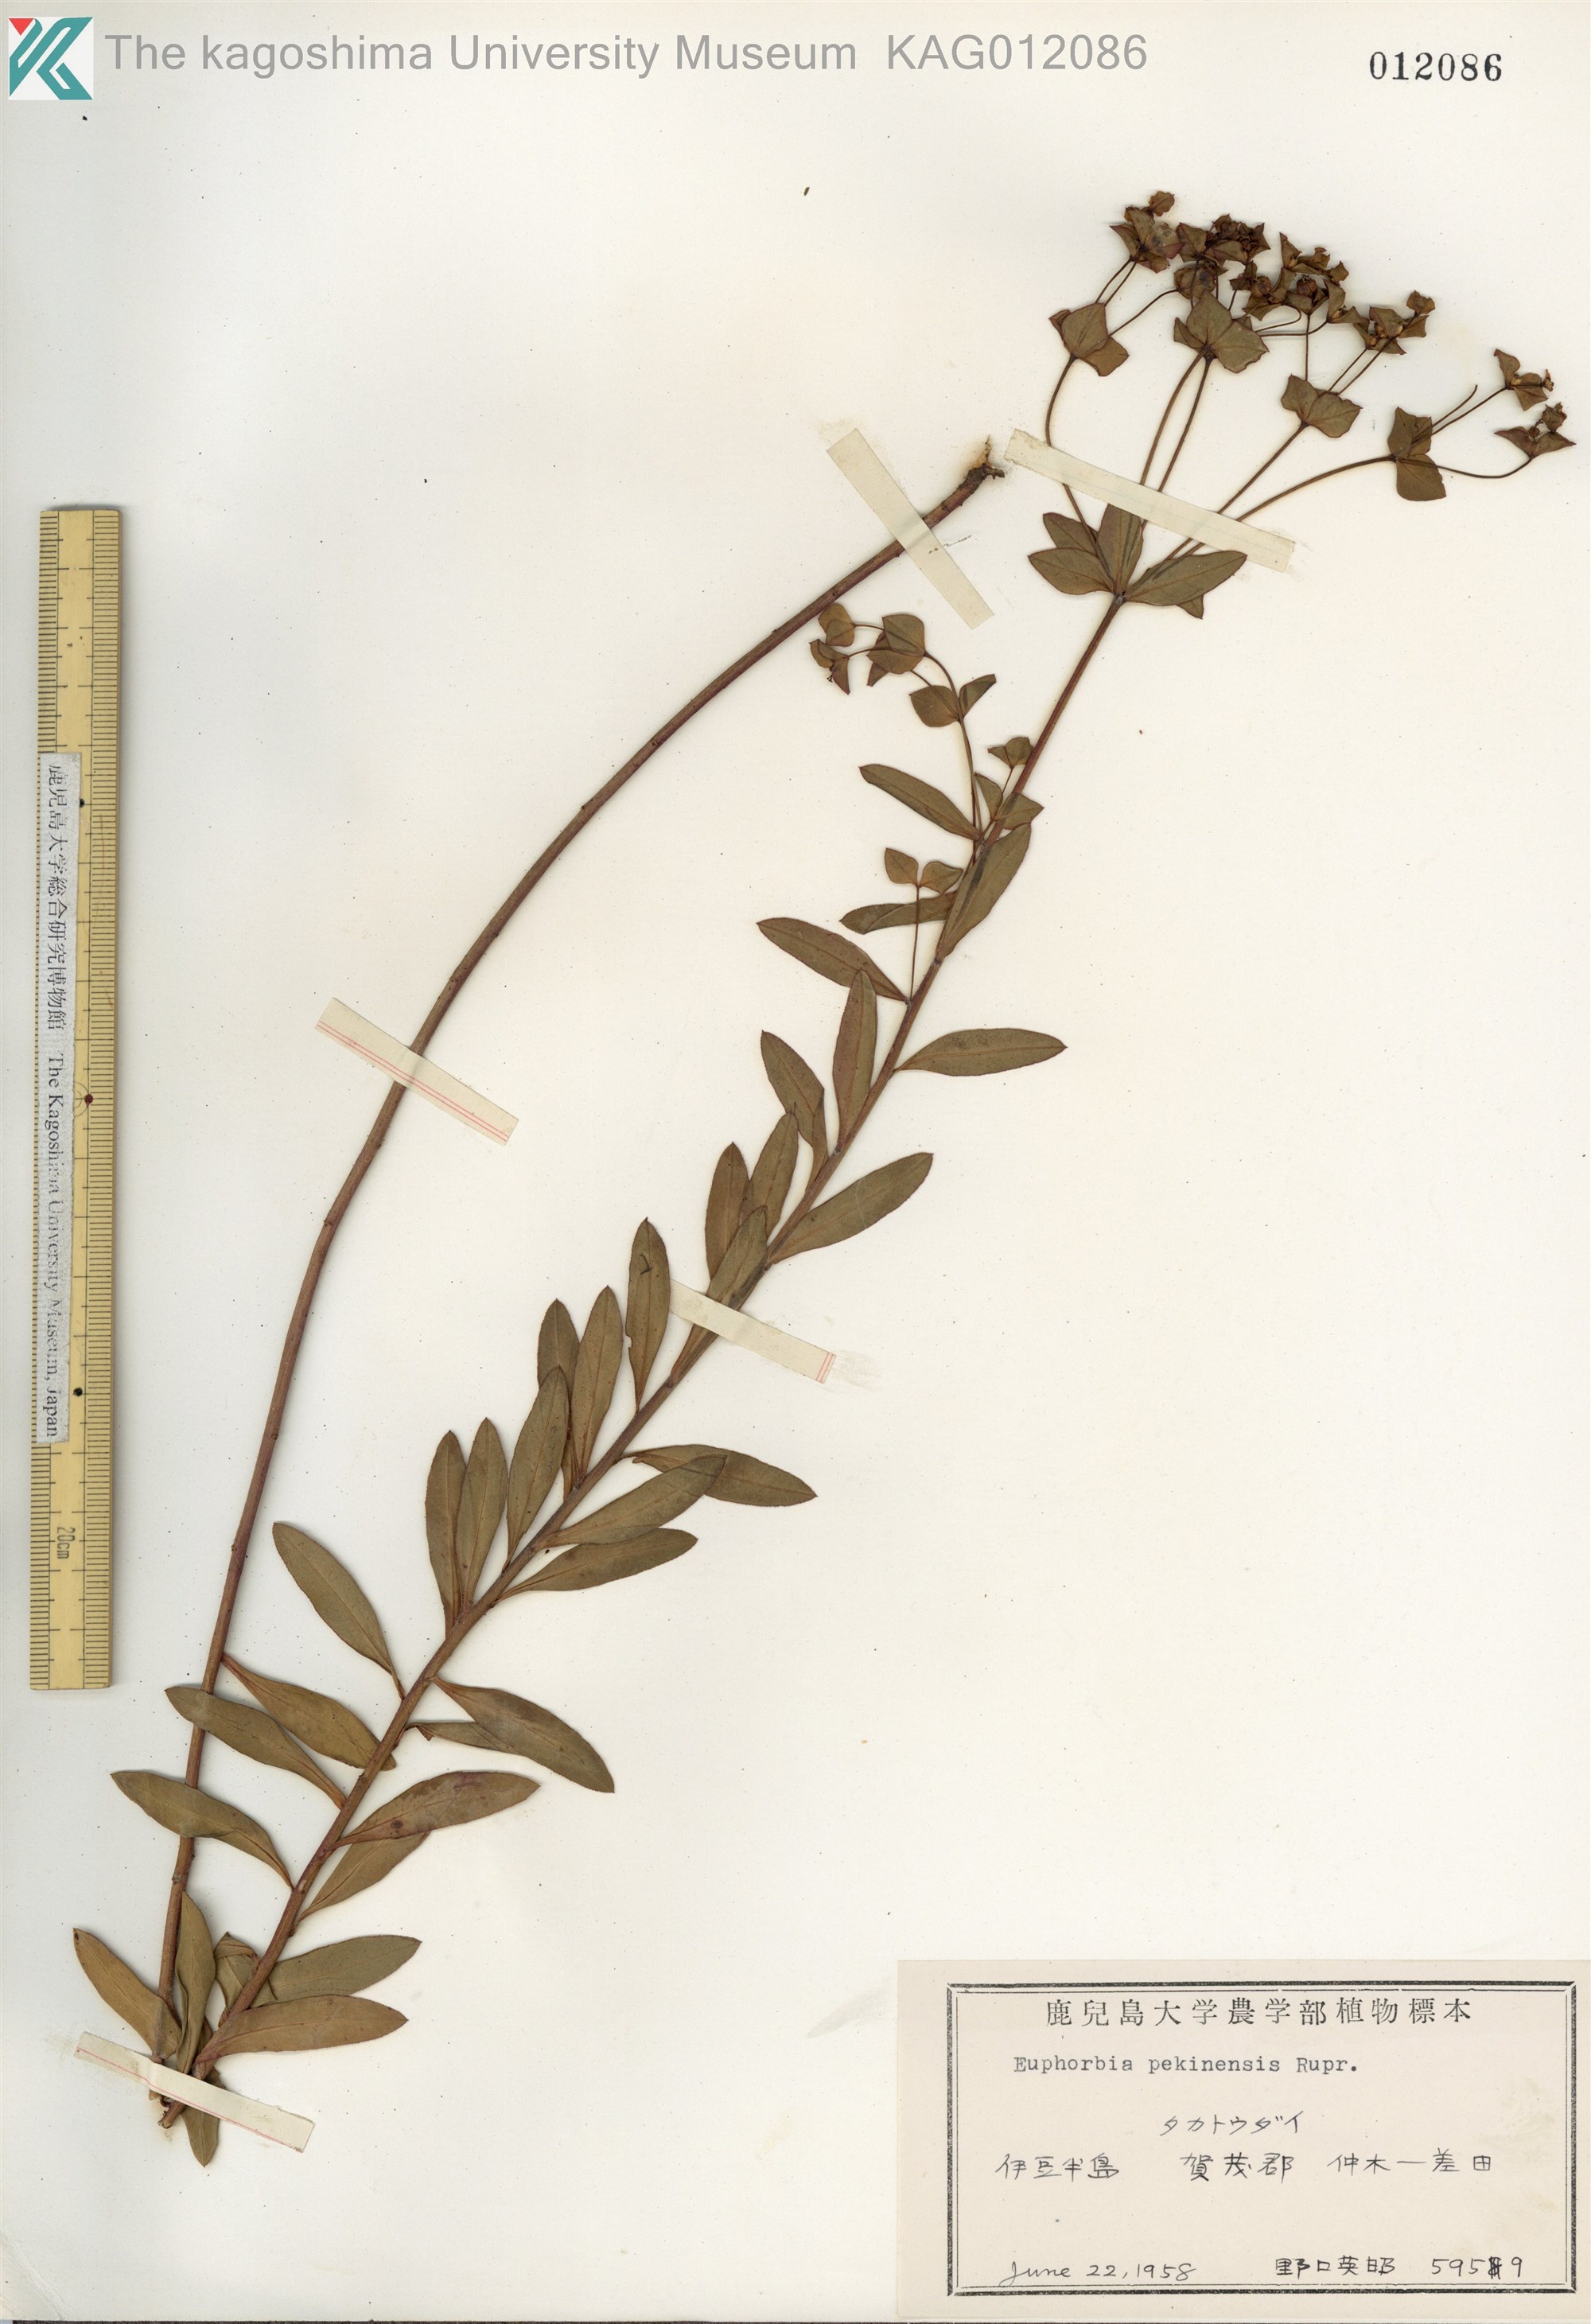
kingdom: Plantae
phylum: Tracheophyta
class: Magnoliopsida
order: Malpighiales
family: Euphorbiaceae
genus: Euphorbia
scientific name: Euphorbia pekinensis
